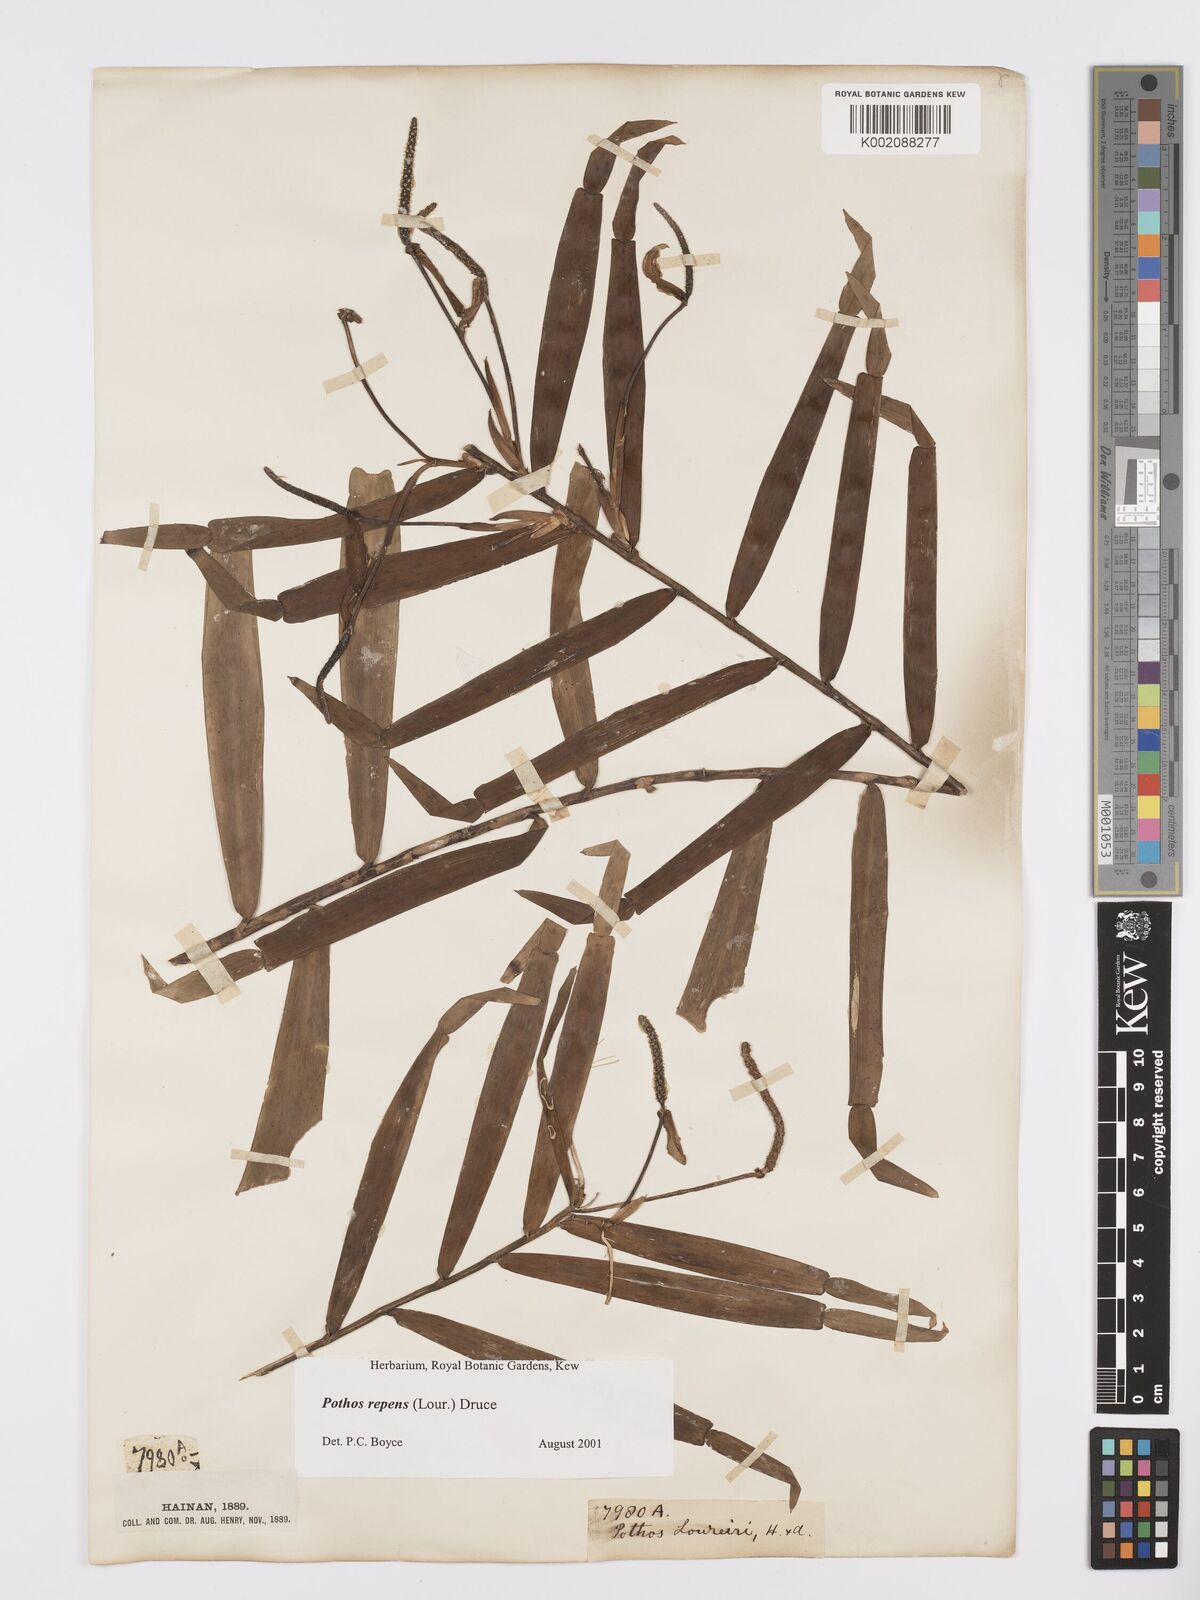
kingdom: Plantae
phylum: Tracheophyta
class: Liliopsida
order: Alismatales
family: Araceae
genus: Pothos
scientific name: Pothos repens
